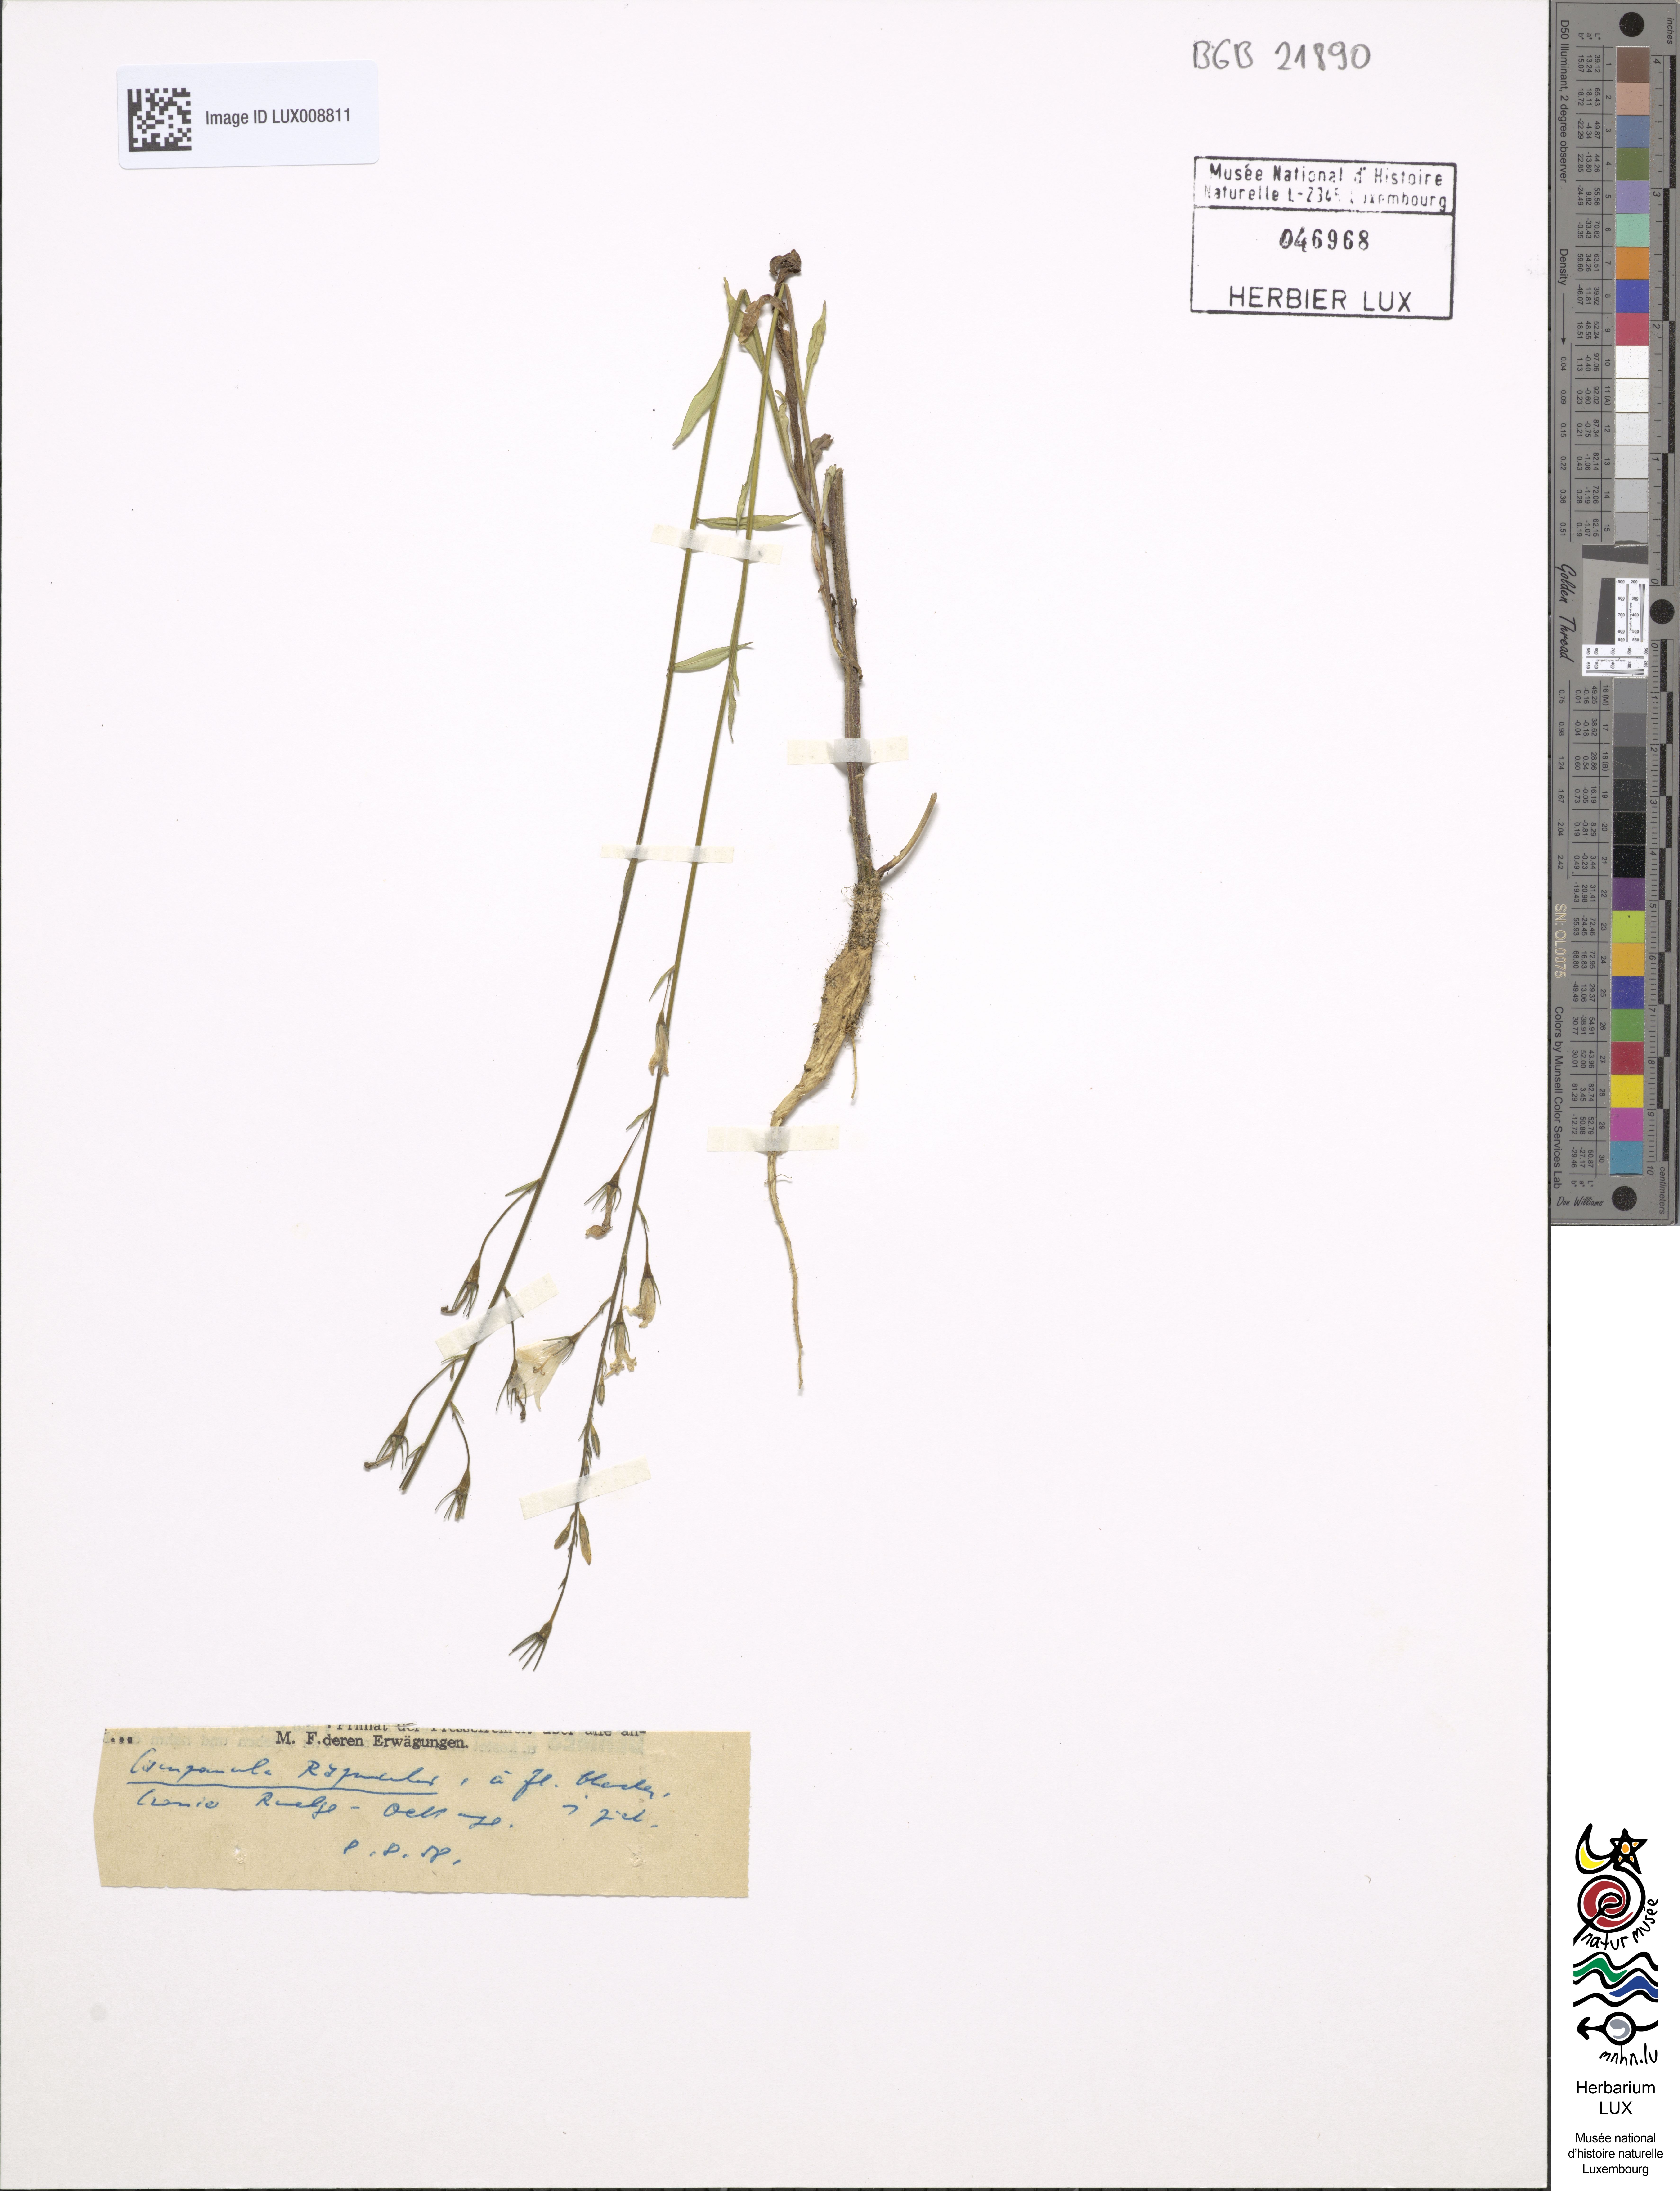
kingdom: Plantae
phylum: Tracheophyta
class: Magnoliopsida
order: Asterales
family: Campanulaceae
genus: Campanula
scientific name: Campanula rapunculus
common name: Rampion bellflower
